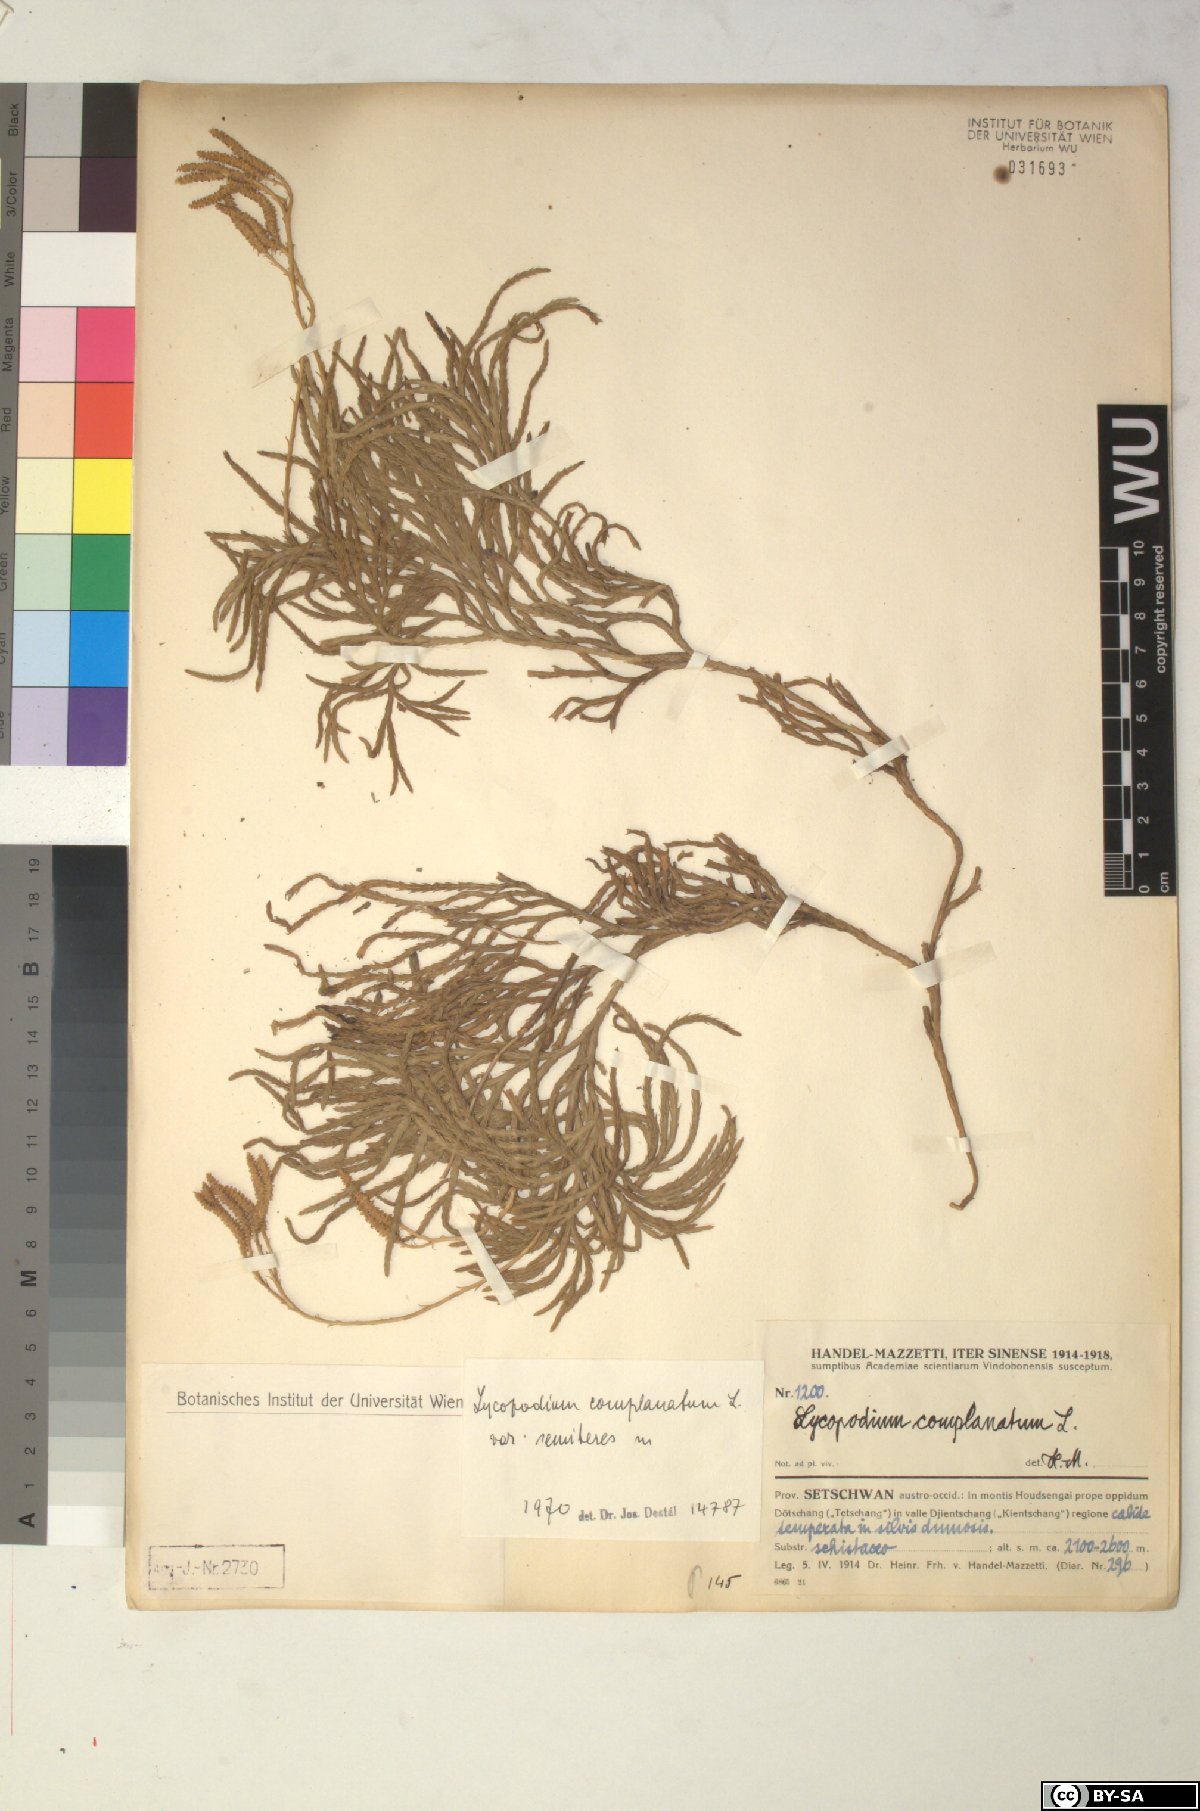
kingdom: Plantae
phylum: Tracheophyta
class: Lycopodiopsida
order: Lycopodiales
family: Lycopodiaceae
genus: Diphasiastrum
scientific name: Diphasiastrum complanatum
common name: Northern running-pine
